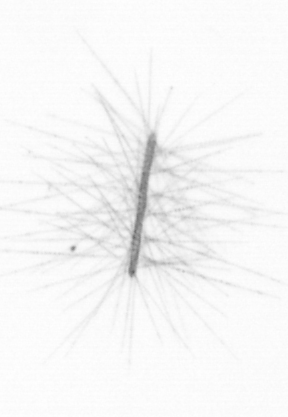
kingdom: Chromista
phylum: Ochrophyta
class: Bacillariophyceae
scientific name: Bacillariophyceae
